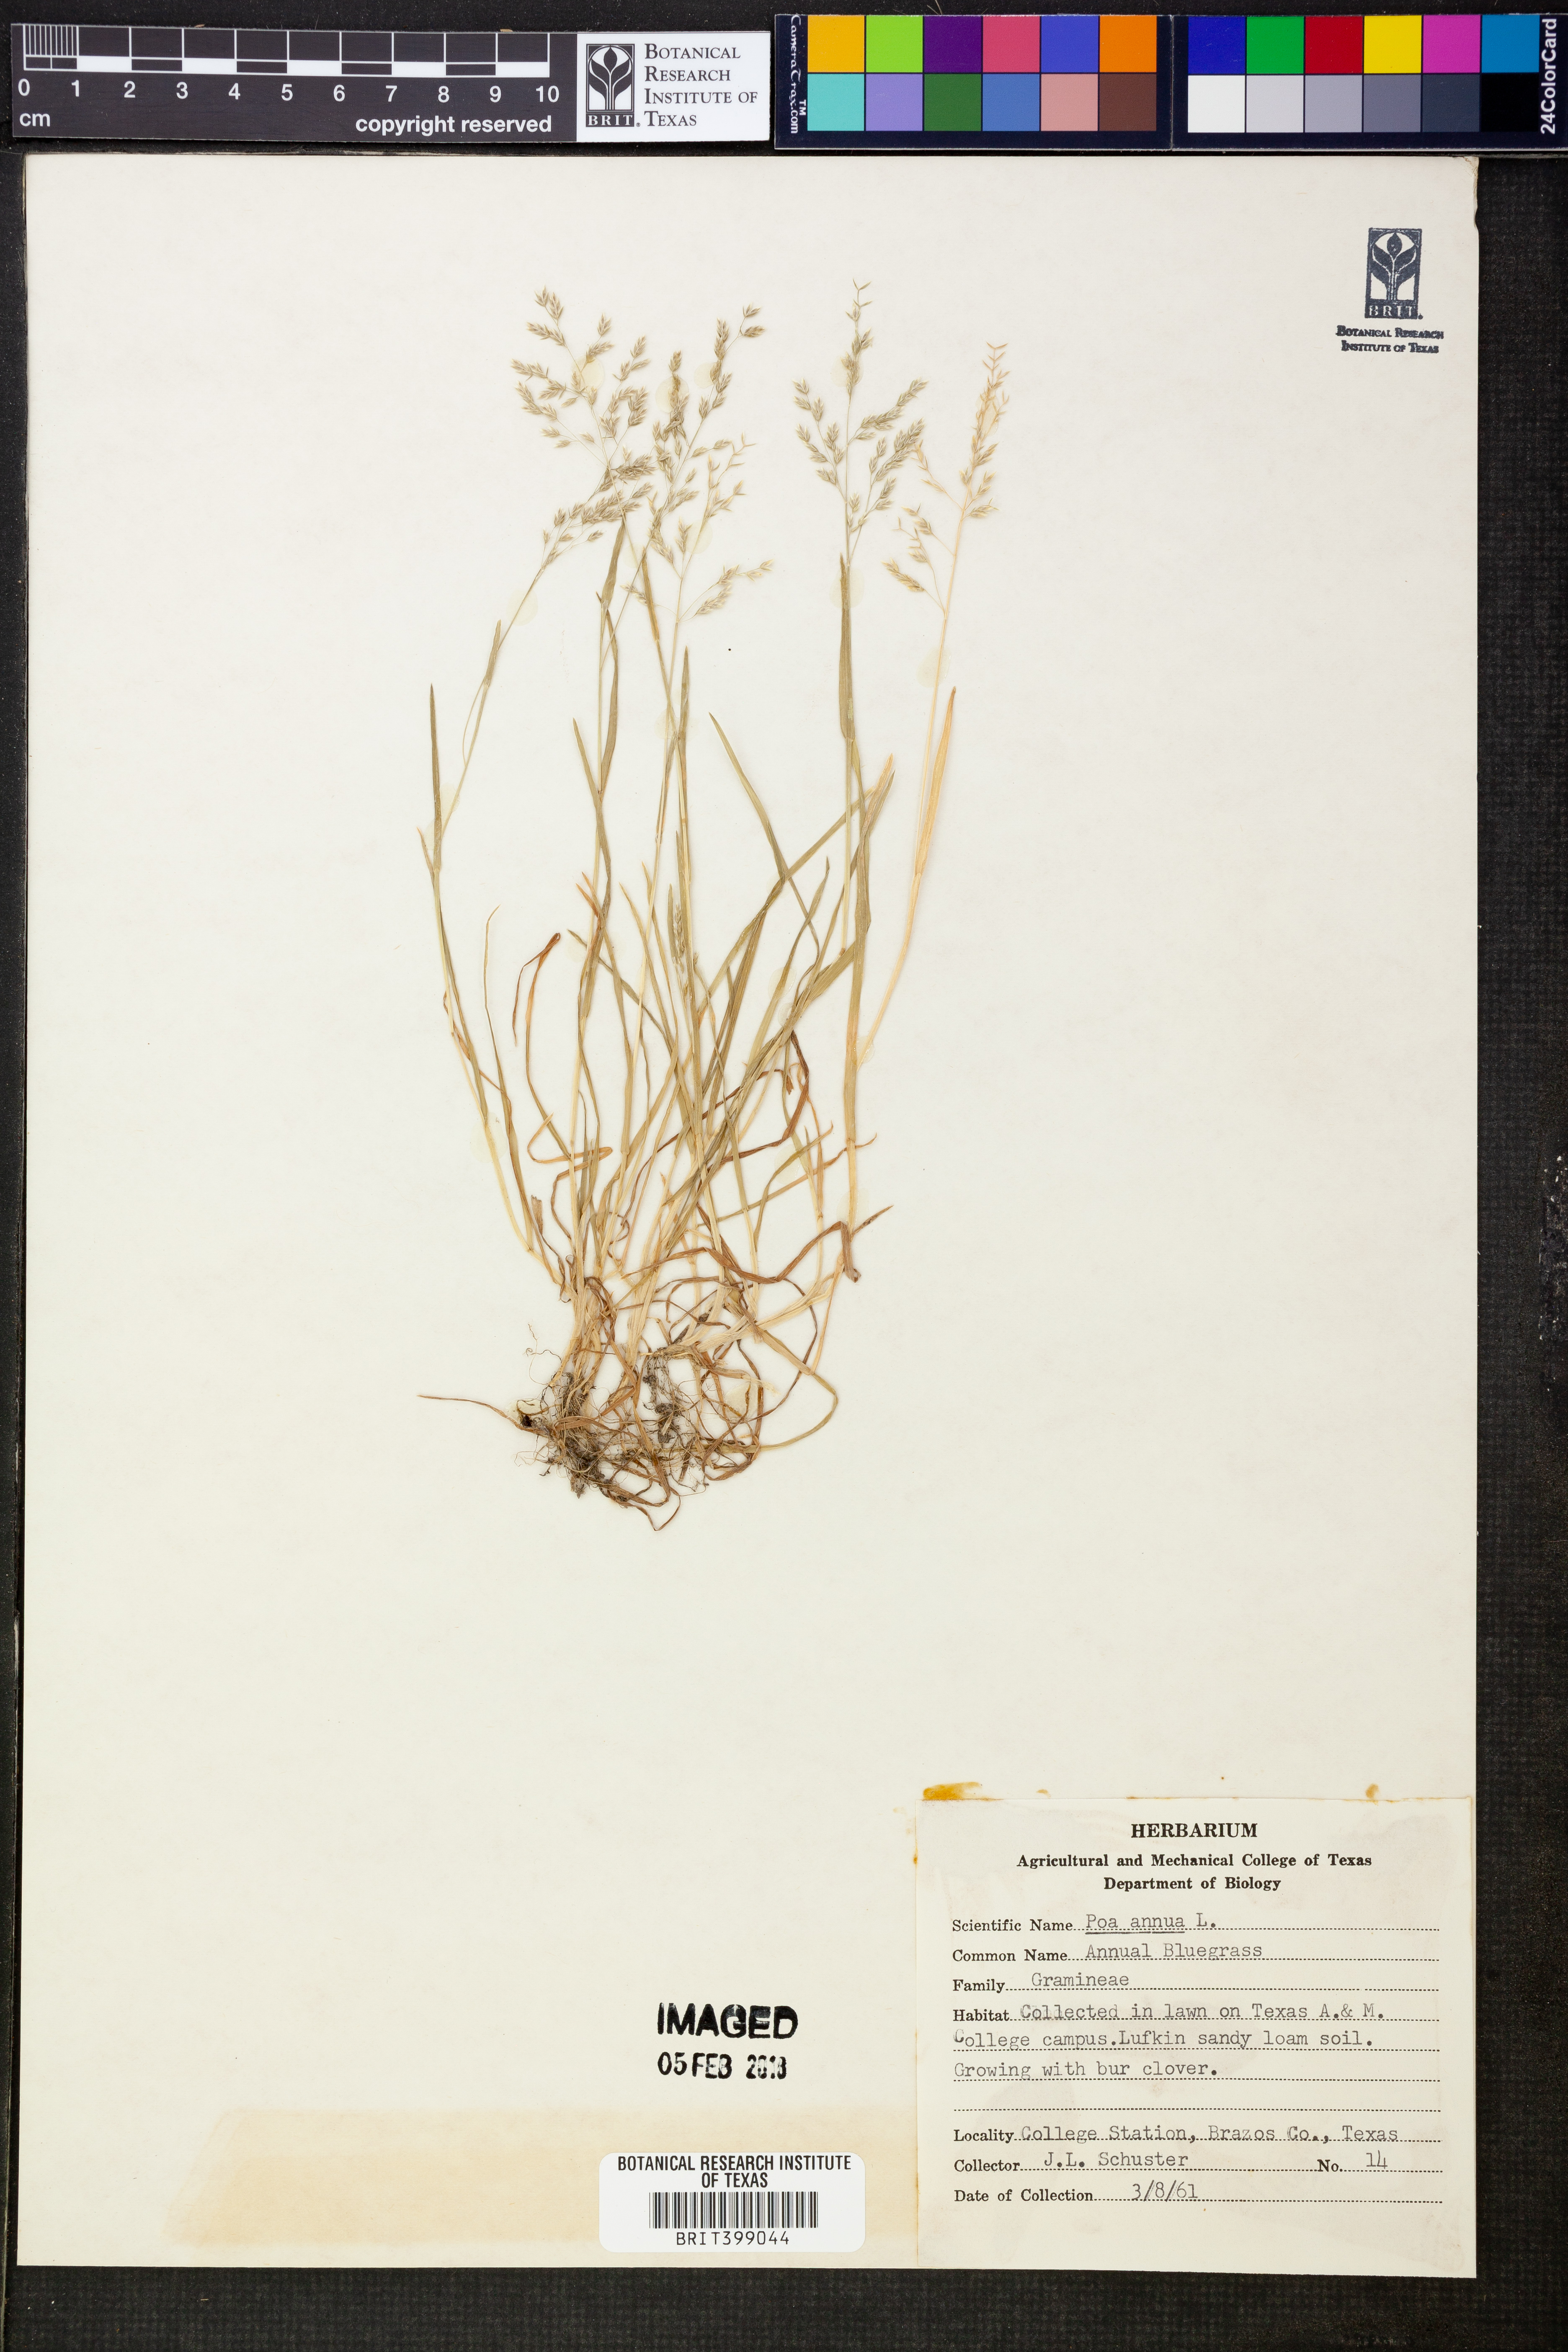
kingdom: Plantae
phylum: Tracheophyta
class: Liliopsida
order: Poales
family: Poaceae
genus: Poa
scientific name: Poa annua
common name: Annual bluegrass
